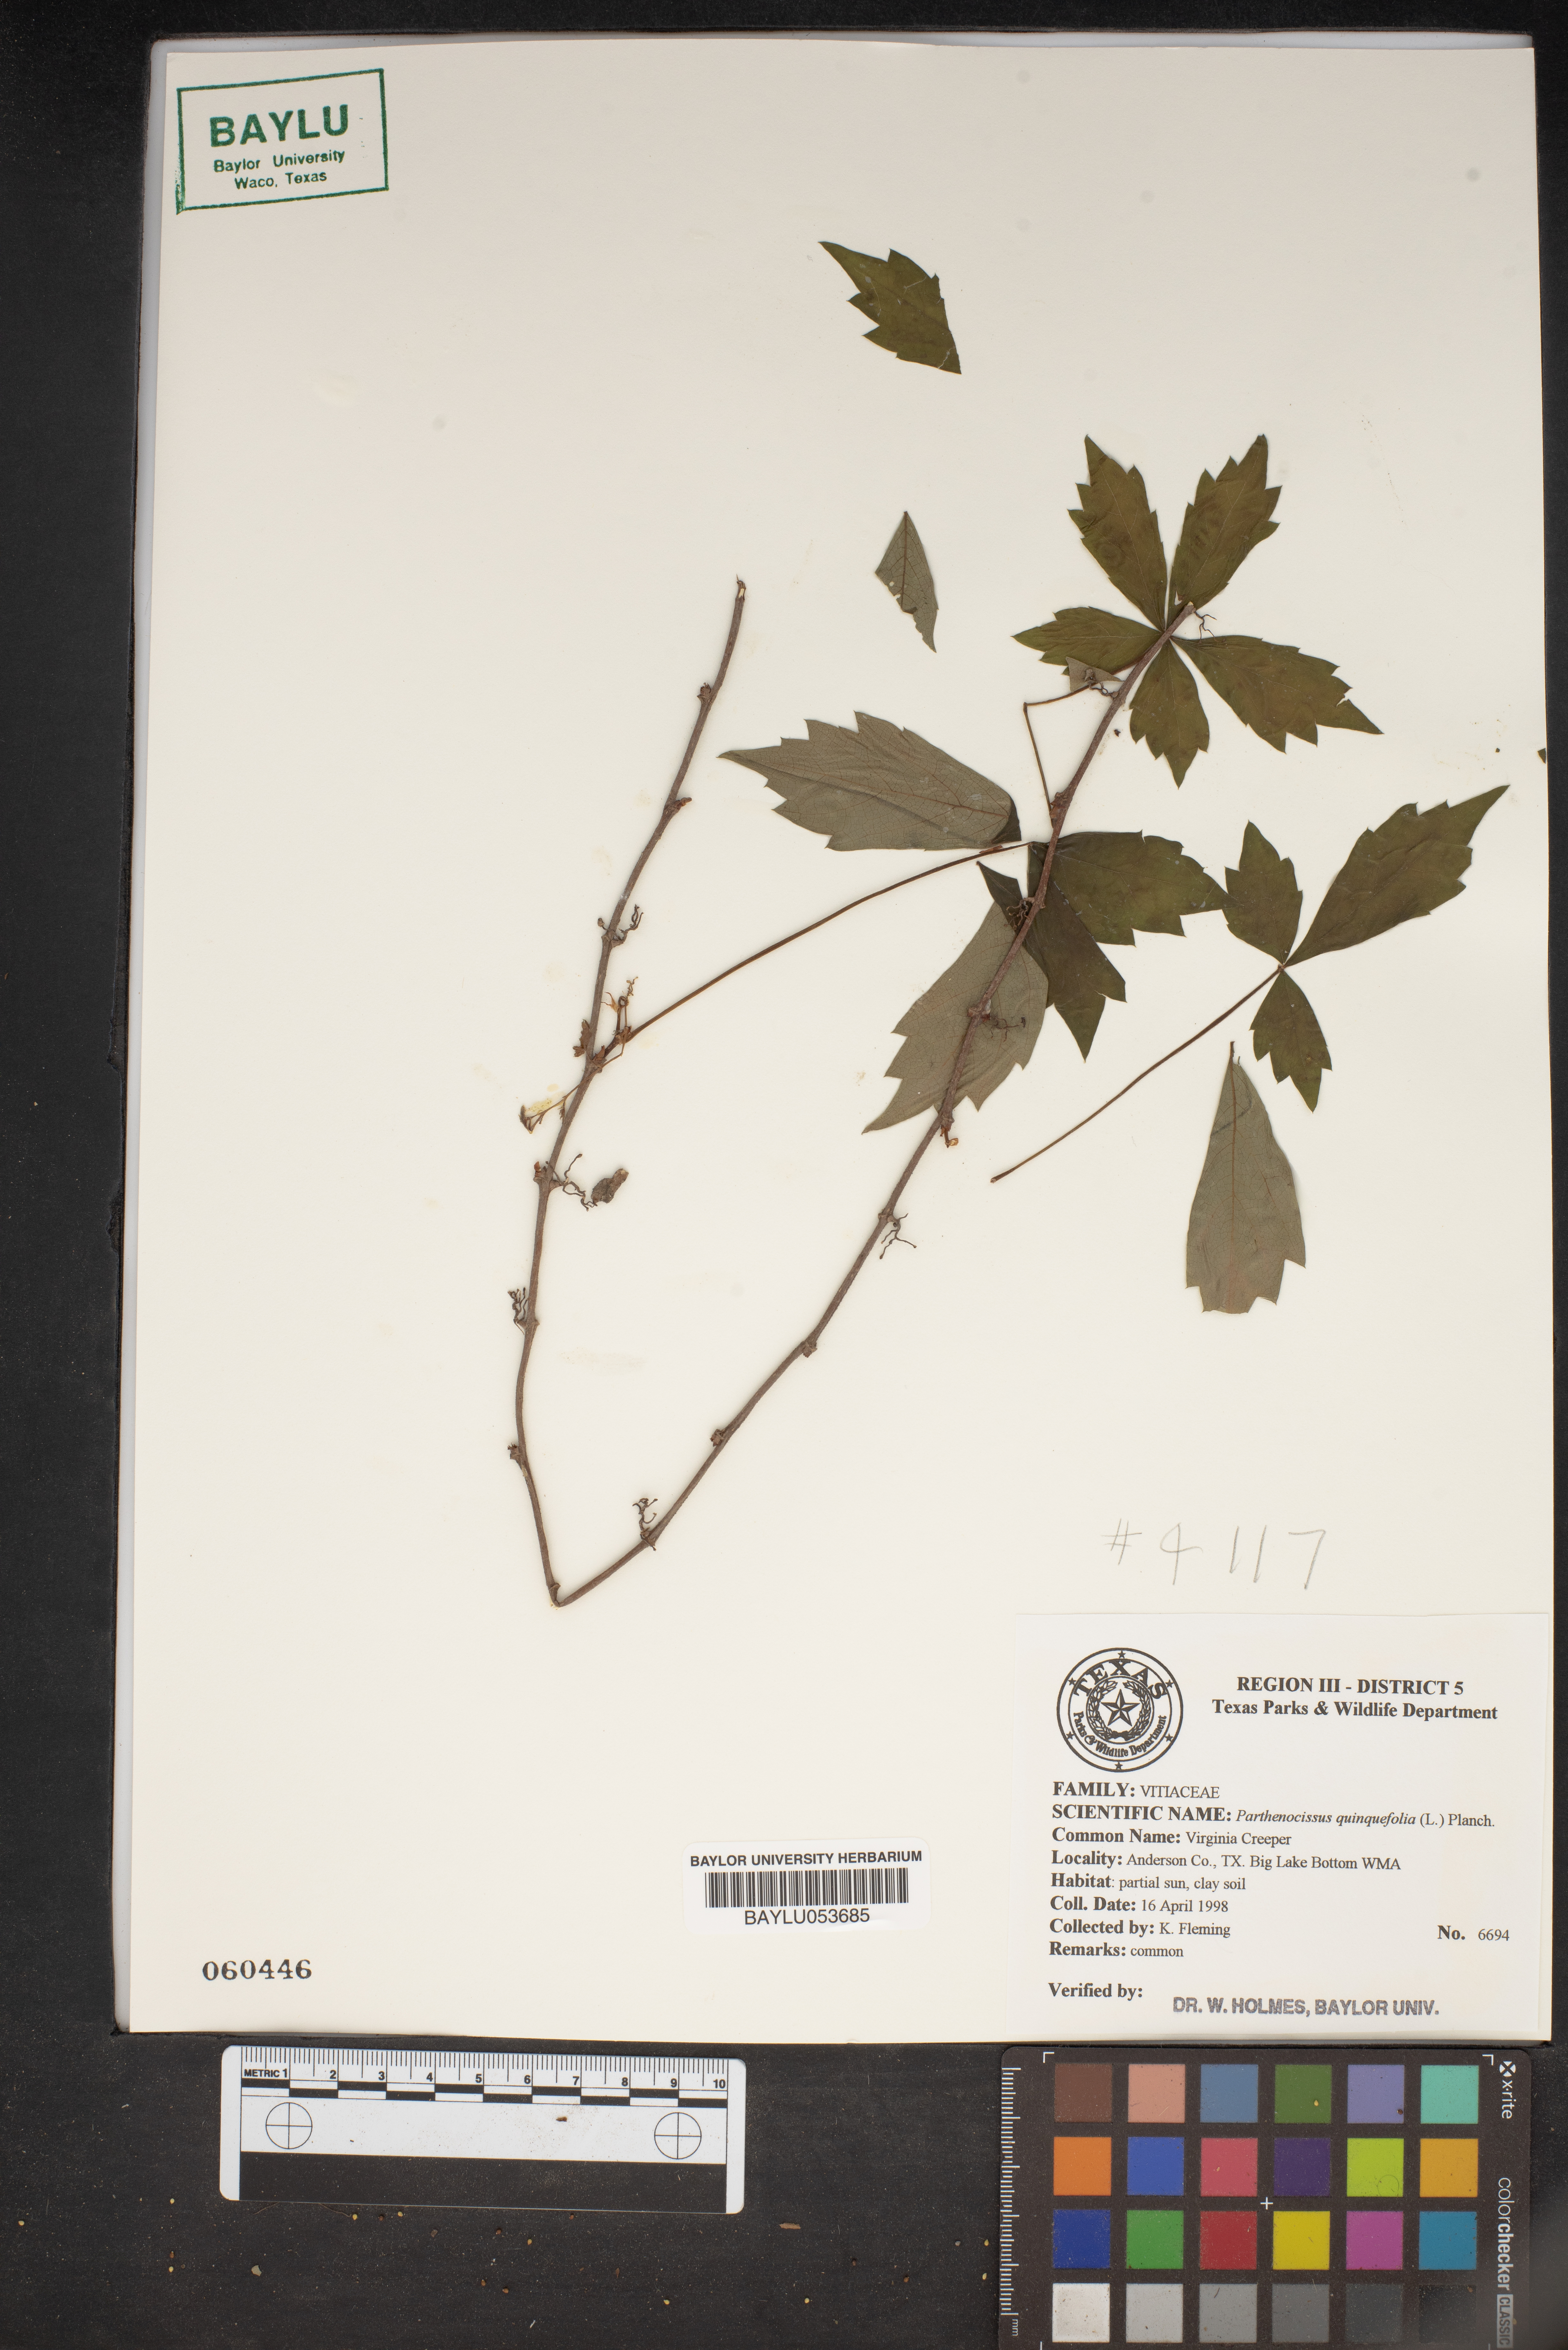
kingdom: Plantae
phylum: Tracheophyta
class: Magnoliopsida
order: Vitales
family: Vitaceae
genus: Parthenocissus
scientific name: Parthenocissus quinquefolia
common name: Virginia-creeper
